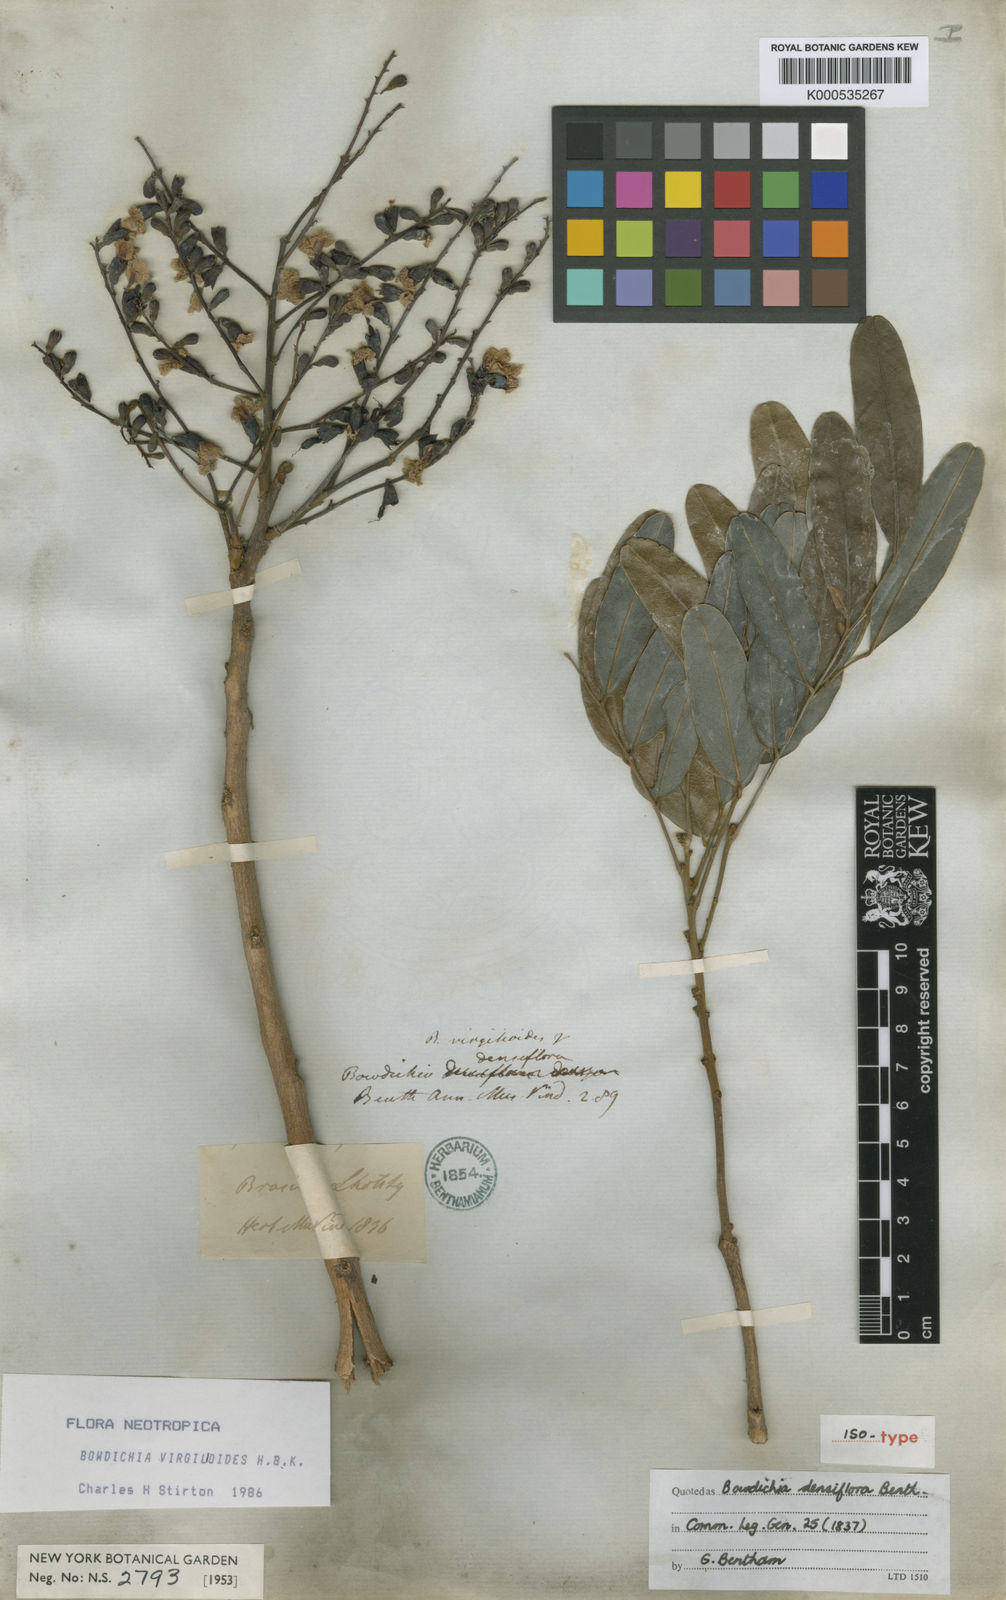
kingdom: Plantae
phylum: Tracheophyta
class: Magnoliopsida
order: Fabales
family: Fabaceae
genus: Bowdichia
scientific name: Bowdichia virgilioides
